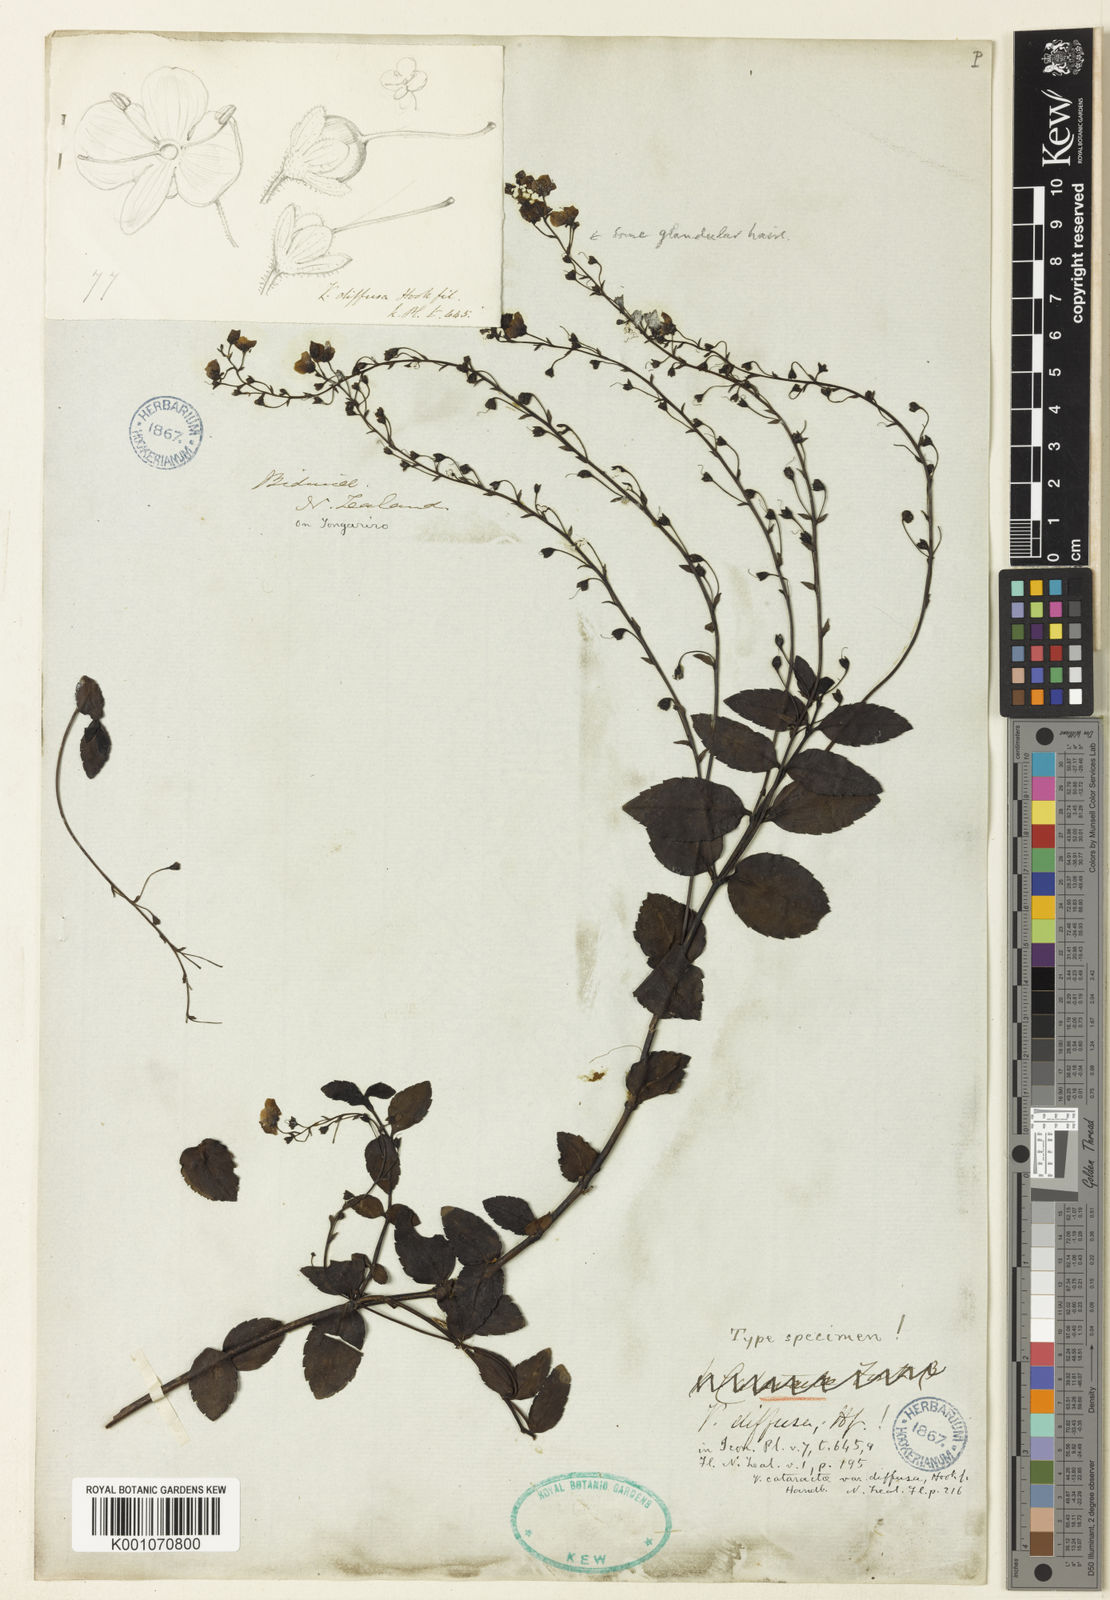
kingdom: Plantae
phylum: Tracheophyta
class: Magnoliopsida
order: Lamiales
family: Plantaginaceae
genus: Veronica
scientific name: Veronica catarractae
